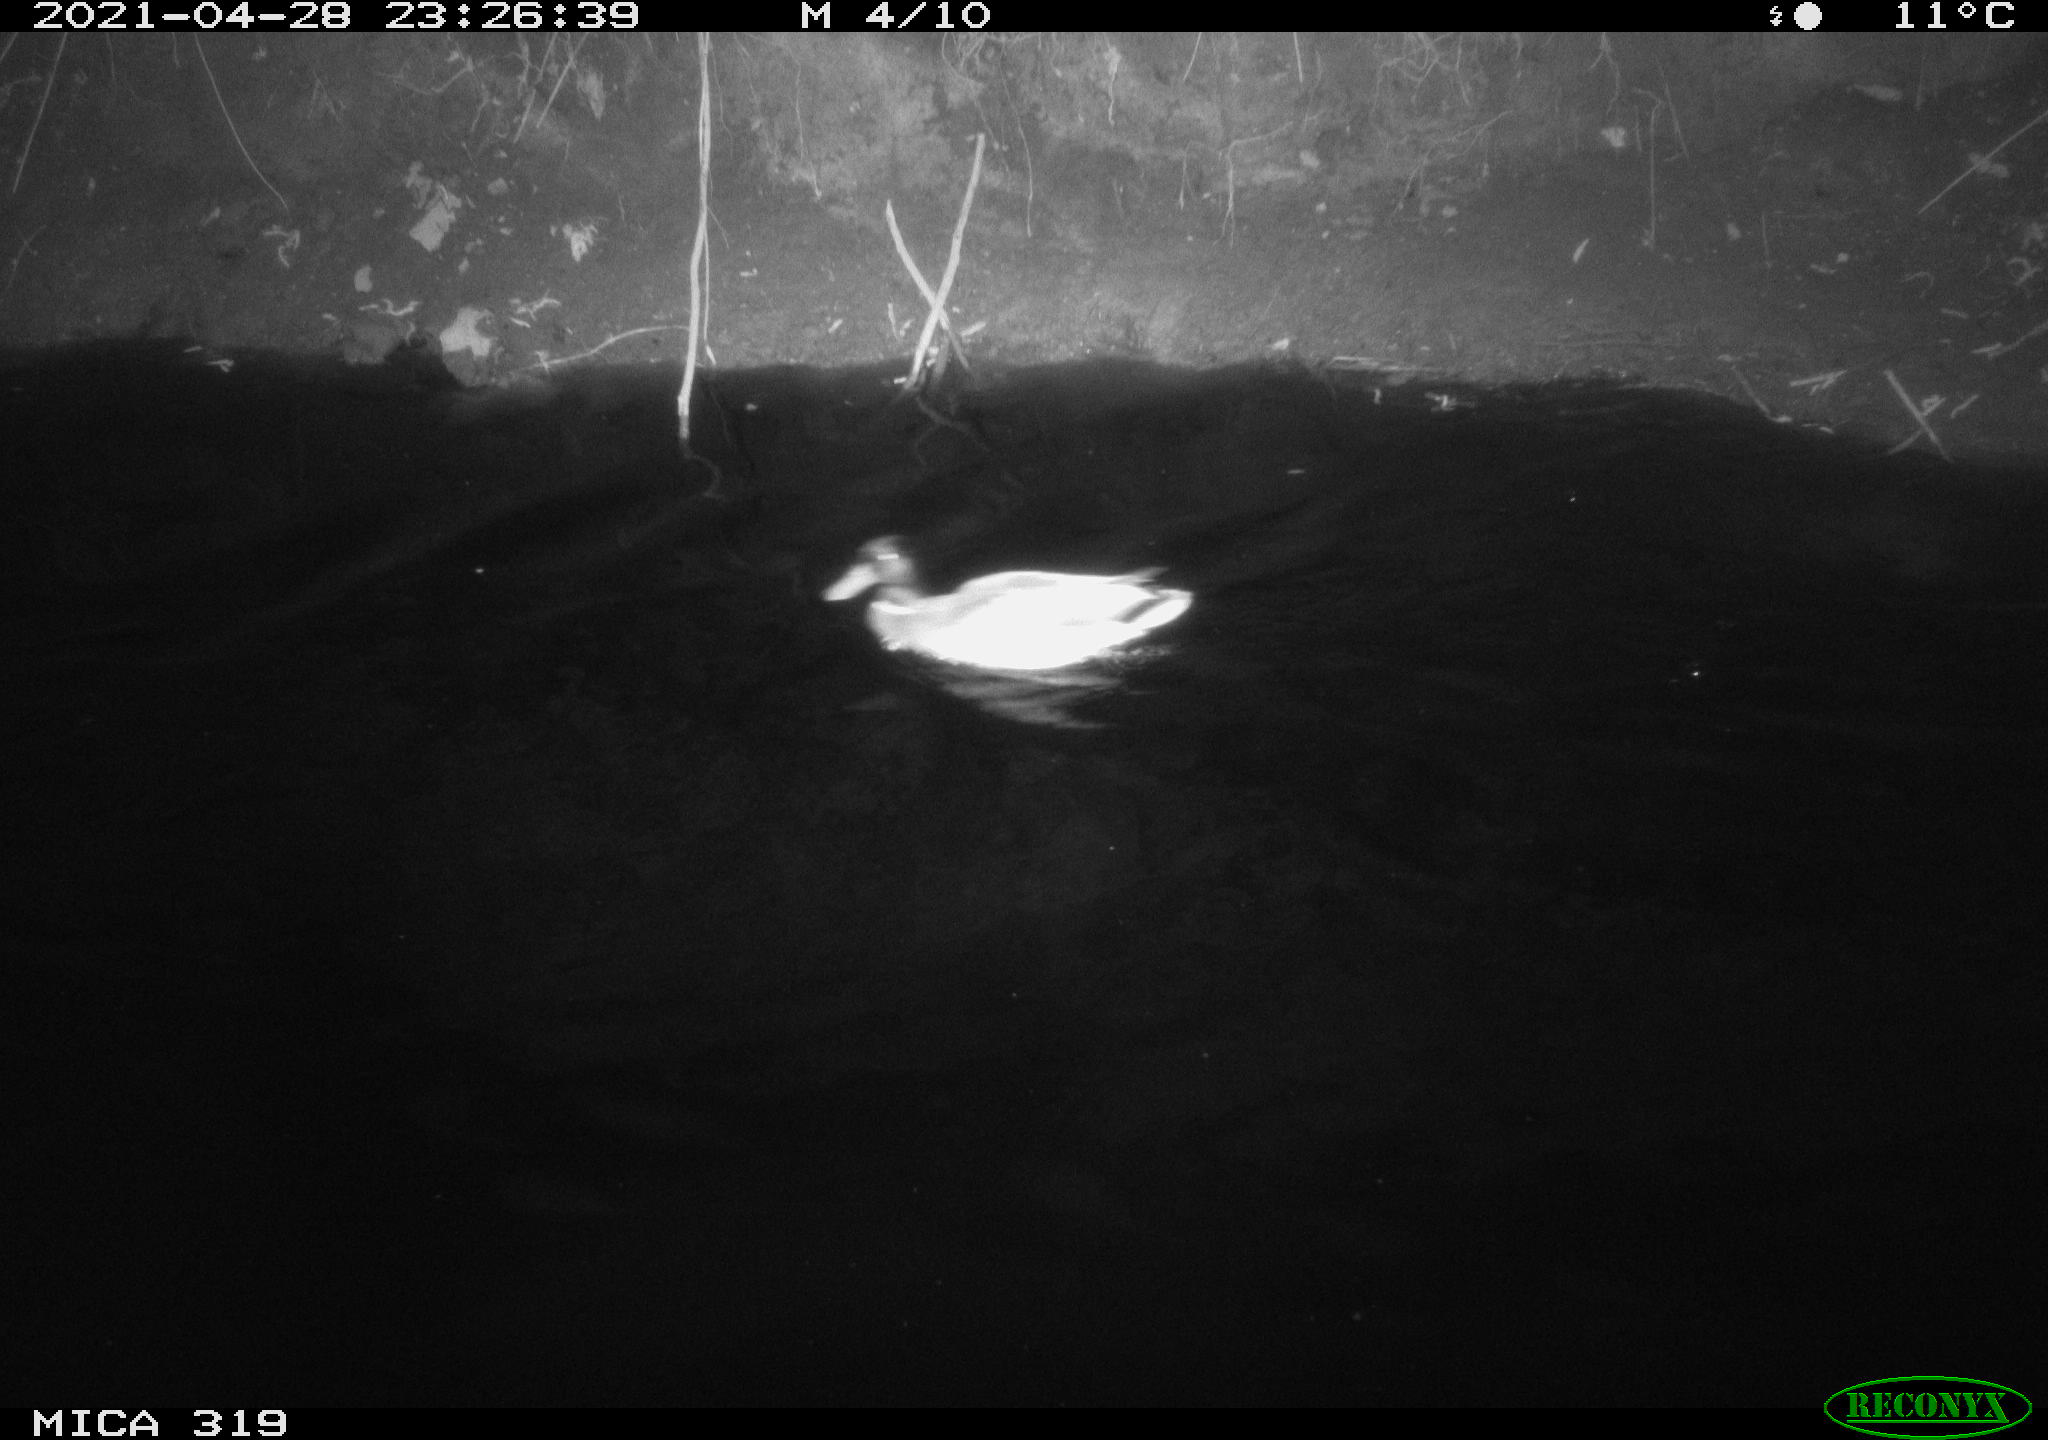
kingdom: Animalia
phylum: Chordata
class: Aves
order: Anseriformes
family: Anatidae
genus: Anas
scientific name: Anas platyrhynchos
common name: Mallard
